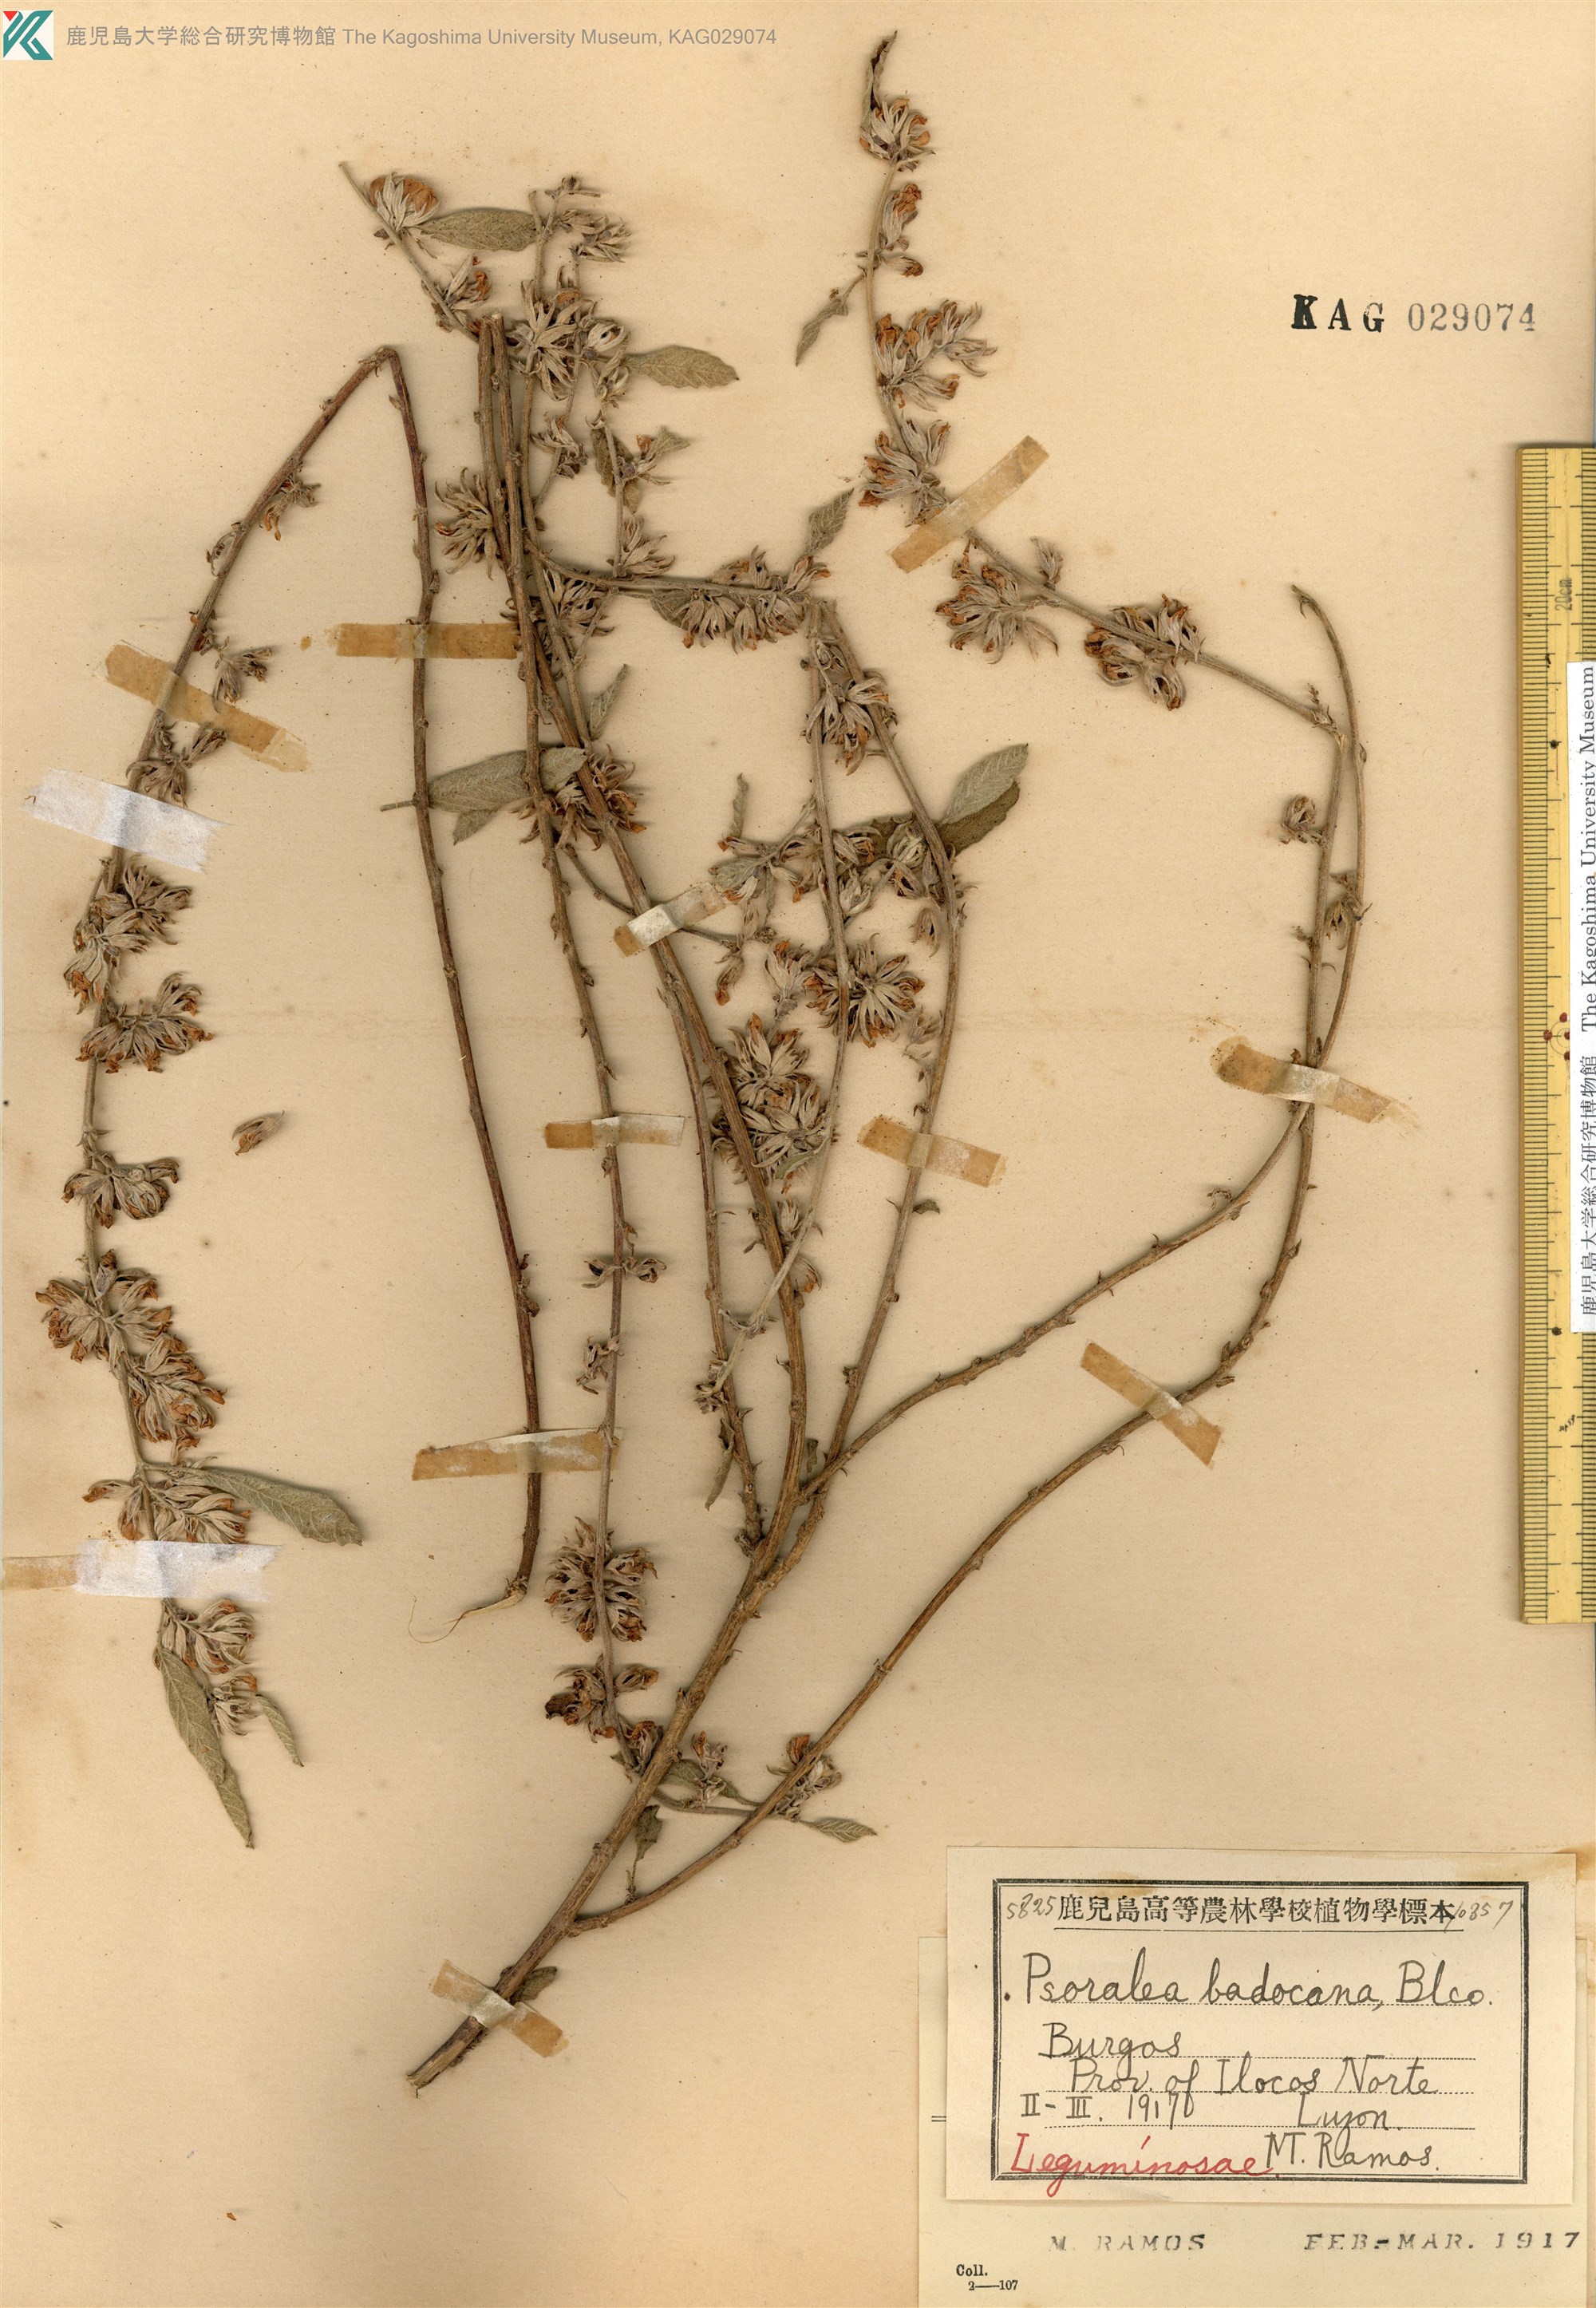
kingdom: Plantae
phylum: Tracheophyta
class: Magnoliopsida
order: Fabales
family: Fabaceae
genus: Cullen
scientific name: Cullen badocanum
